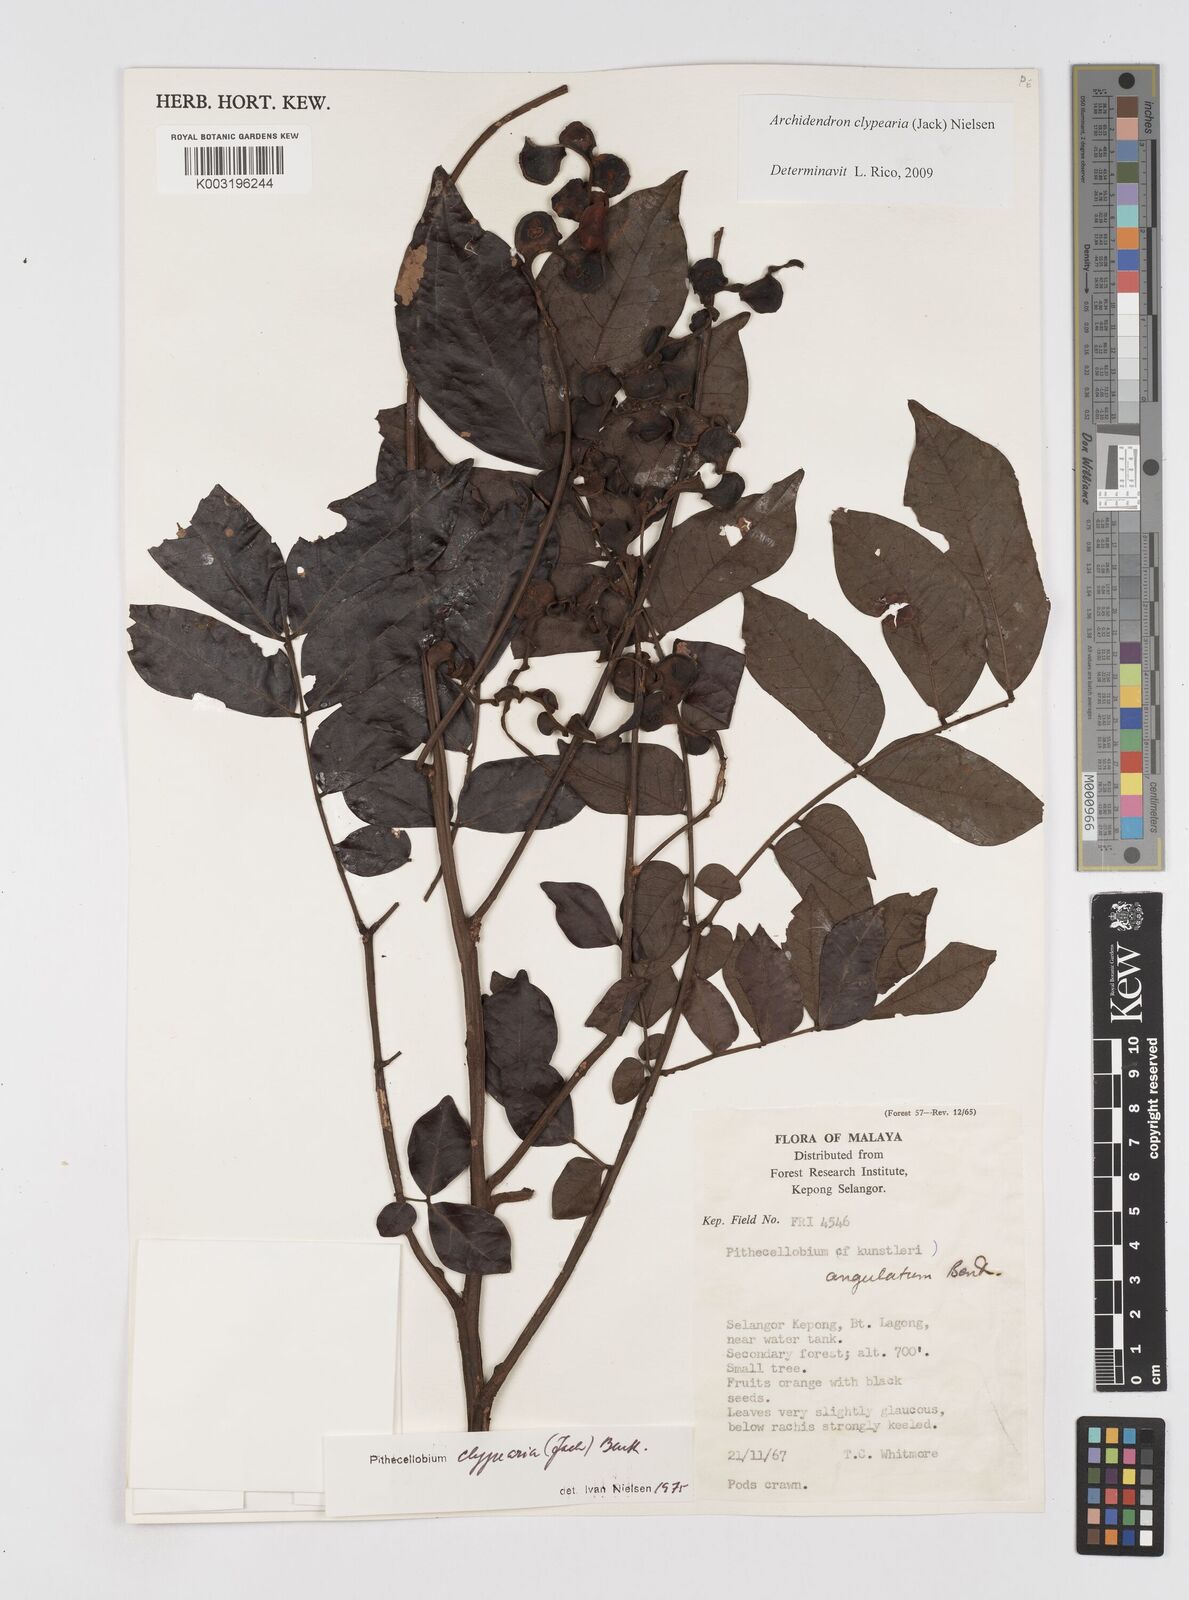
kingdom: Plantae
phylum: Tracheophyta
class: Magnoliopsida
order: Fabales
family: Fabaceae
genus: Archidendron
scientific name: Archidendron clypearia
